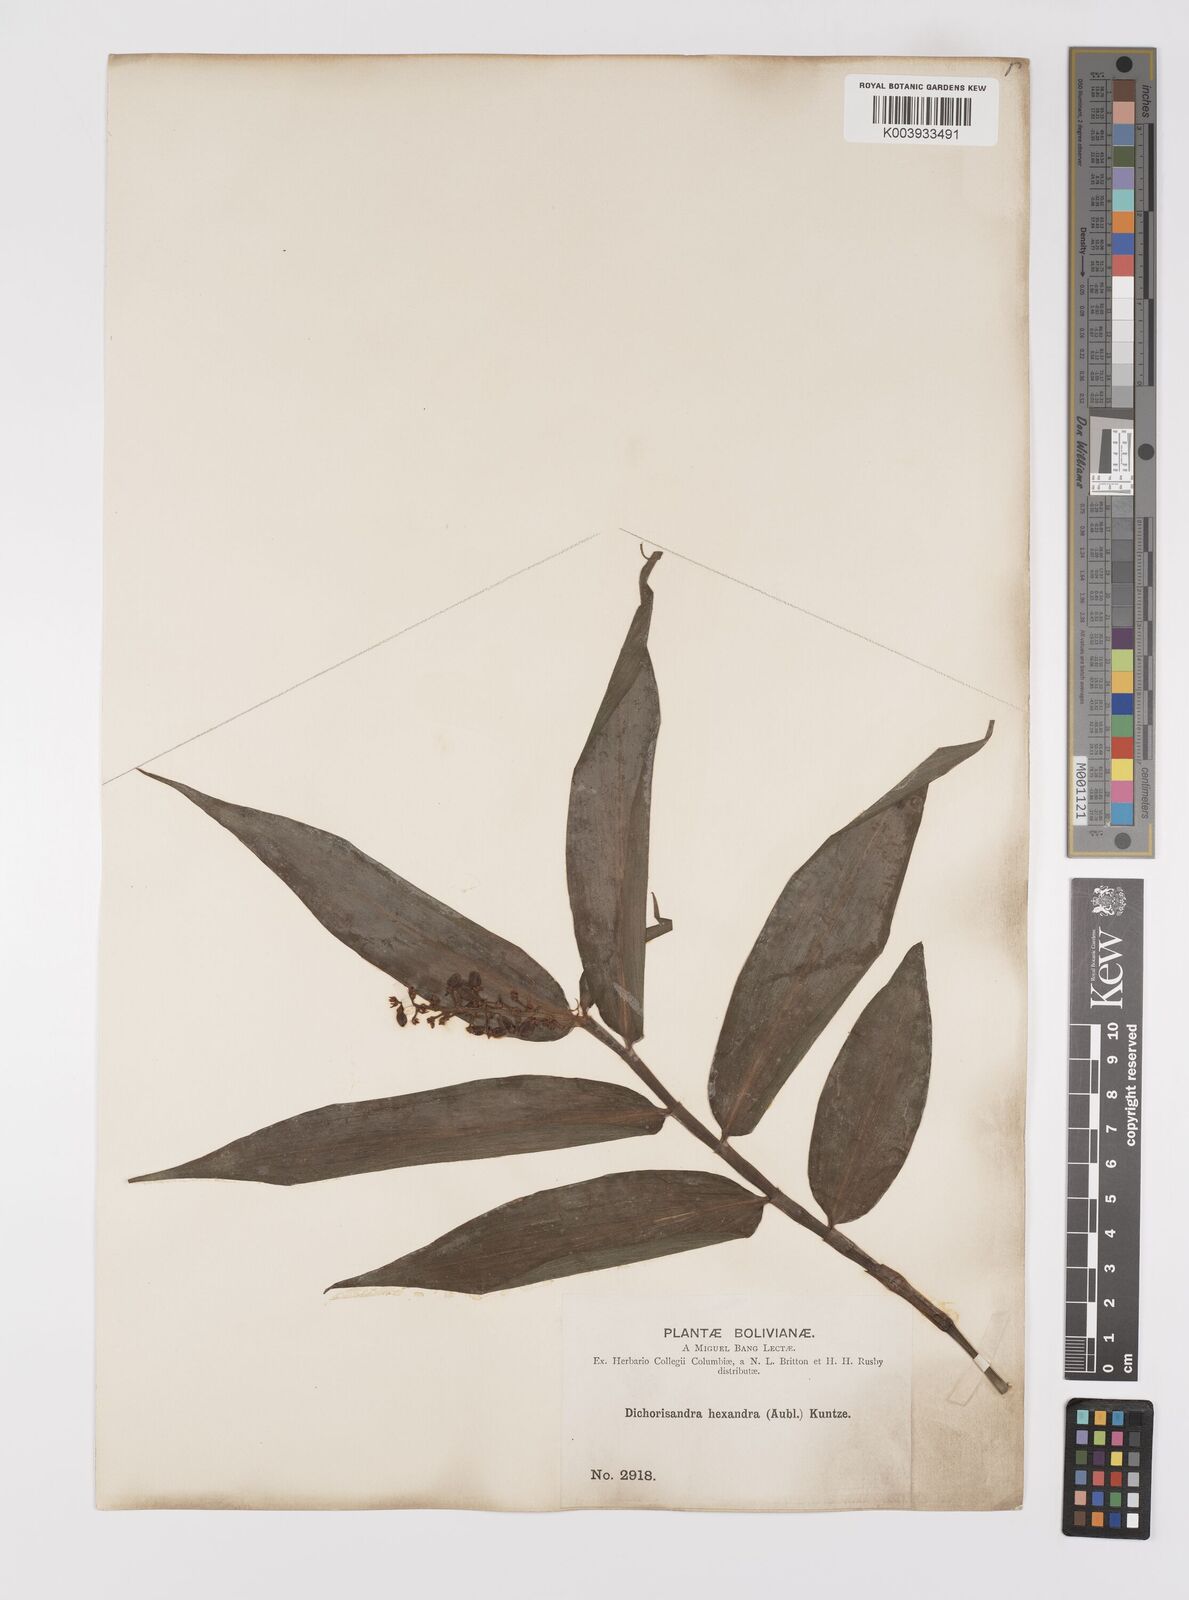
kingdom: Plantae
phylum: Tracheophyta
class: Liliopsida
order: Commelinales
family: Commelinaceae
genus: Dichorisandra
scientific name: Dichorisandra hexandra
